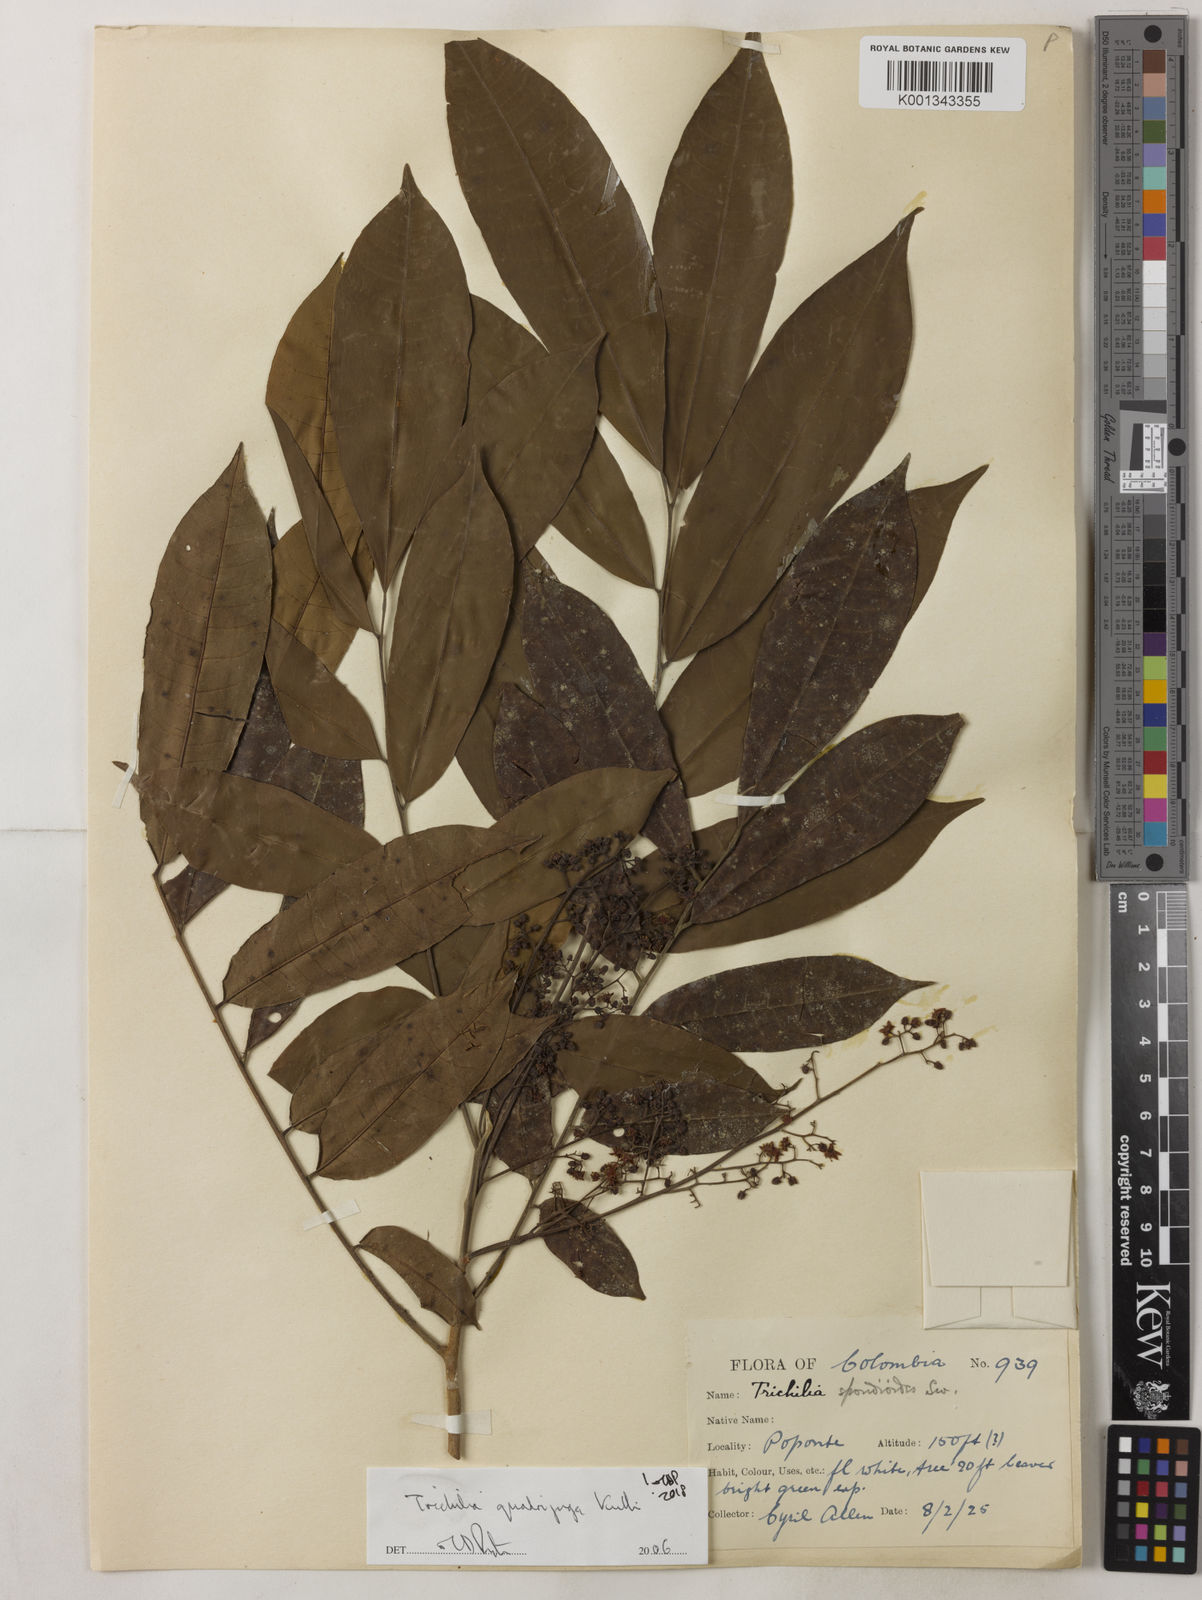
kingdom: Plantae
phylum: Tracheophyta
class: Magnoliopsida
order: Sapindales
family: Meliaceae
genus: Trichilia
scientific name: Trichilia
